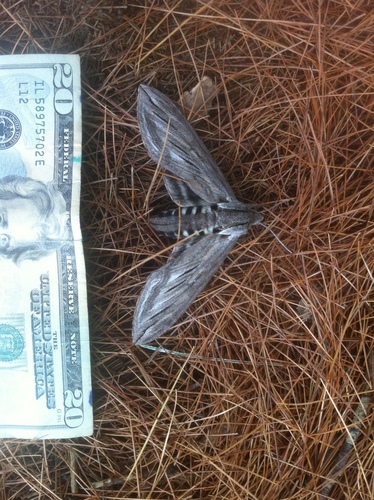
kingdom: Animalia
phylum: Arthropoda
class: Insecta
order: Lepidoptera
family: Sphingidae
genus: Sphinx
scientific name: Sphinx chersis
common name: Great ash sphinx
